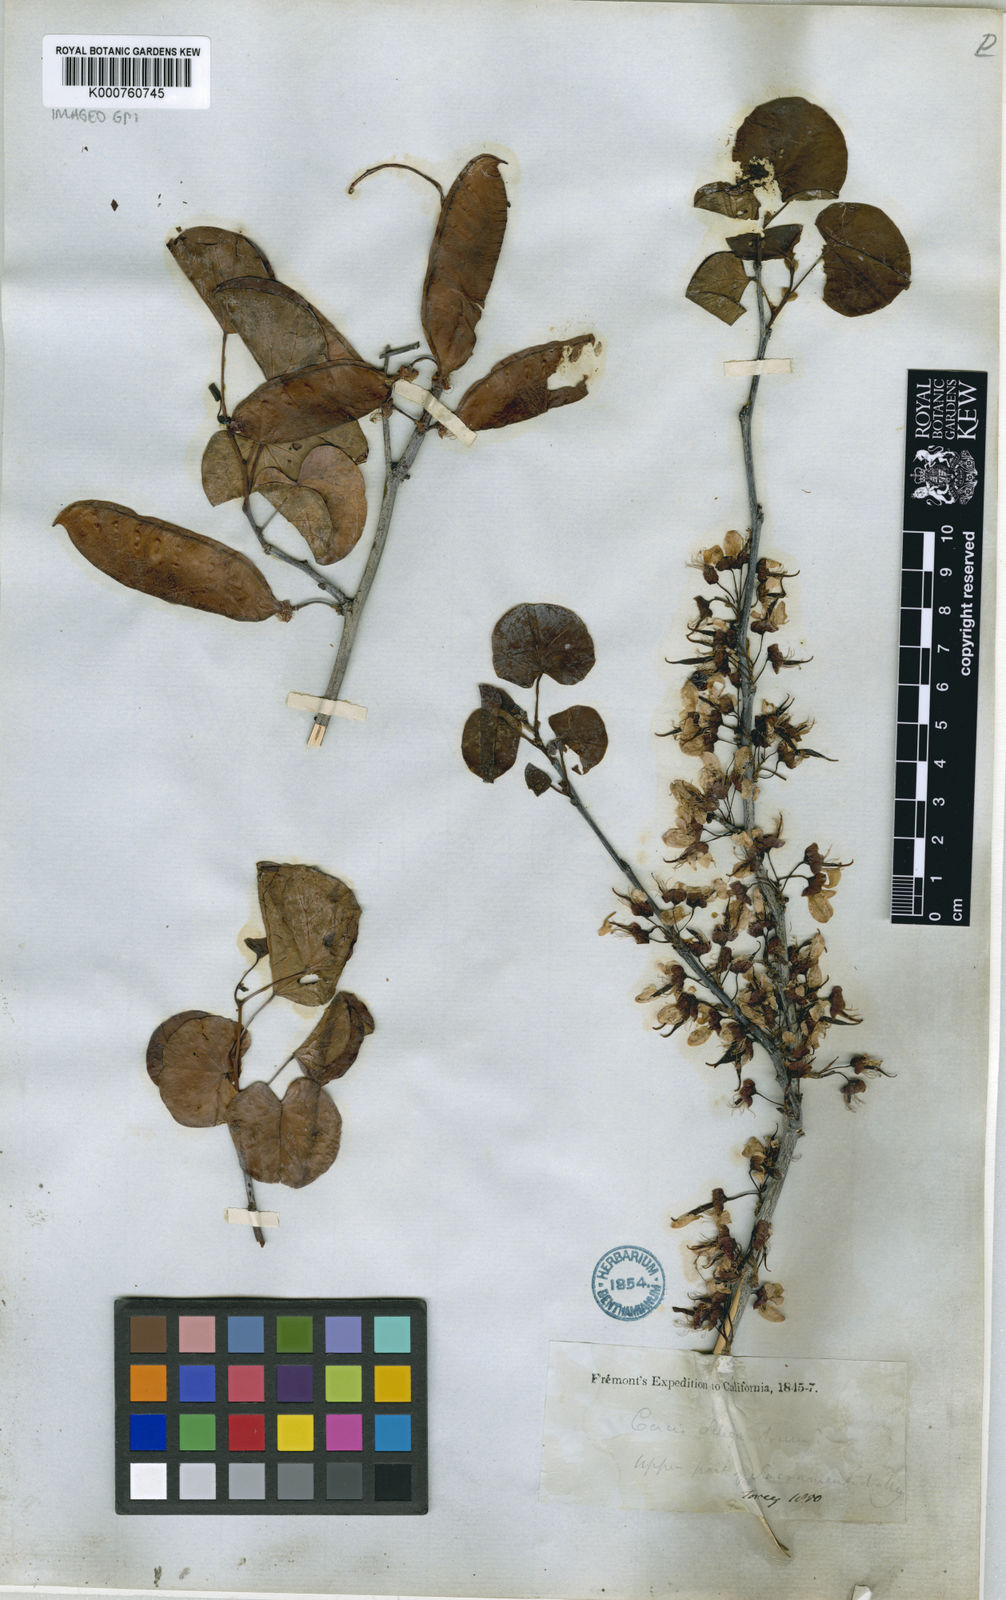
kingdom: Plantae
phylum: Tracheophyta
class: Magnoliopsida
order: Fabales
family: Fabaceae
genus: Cercis
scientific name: Cercis occidentalis
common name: California redbud
